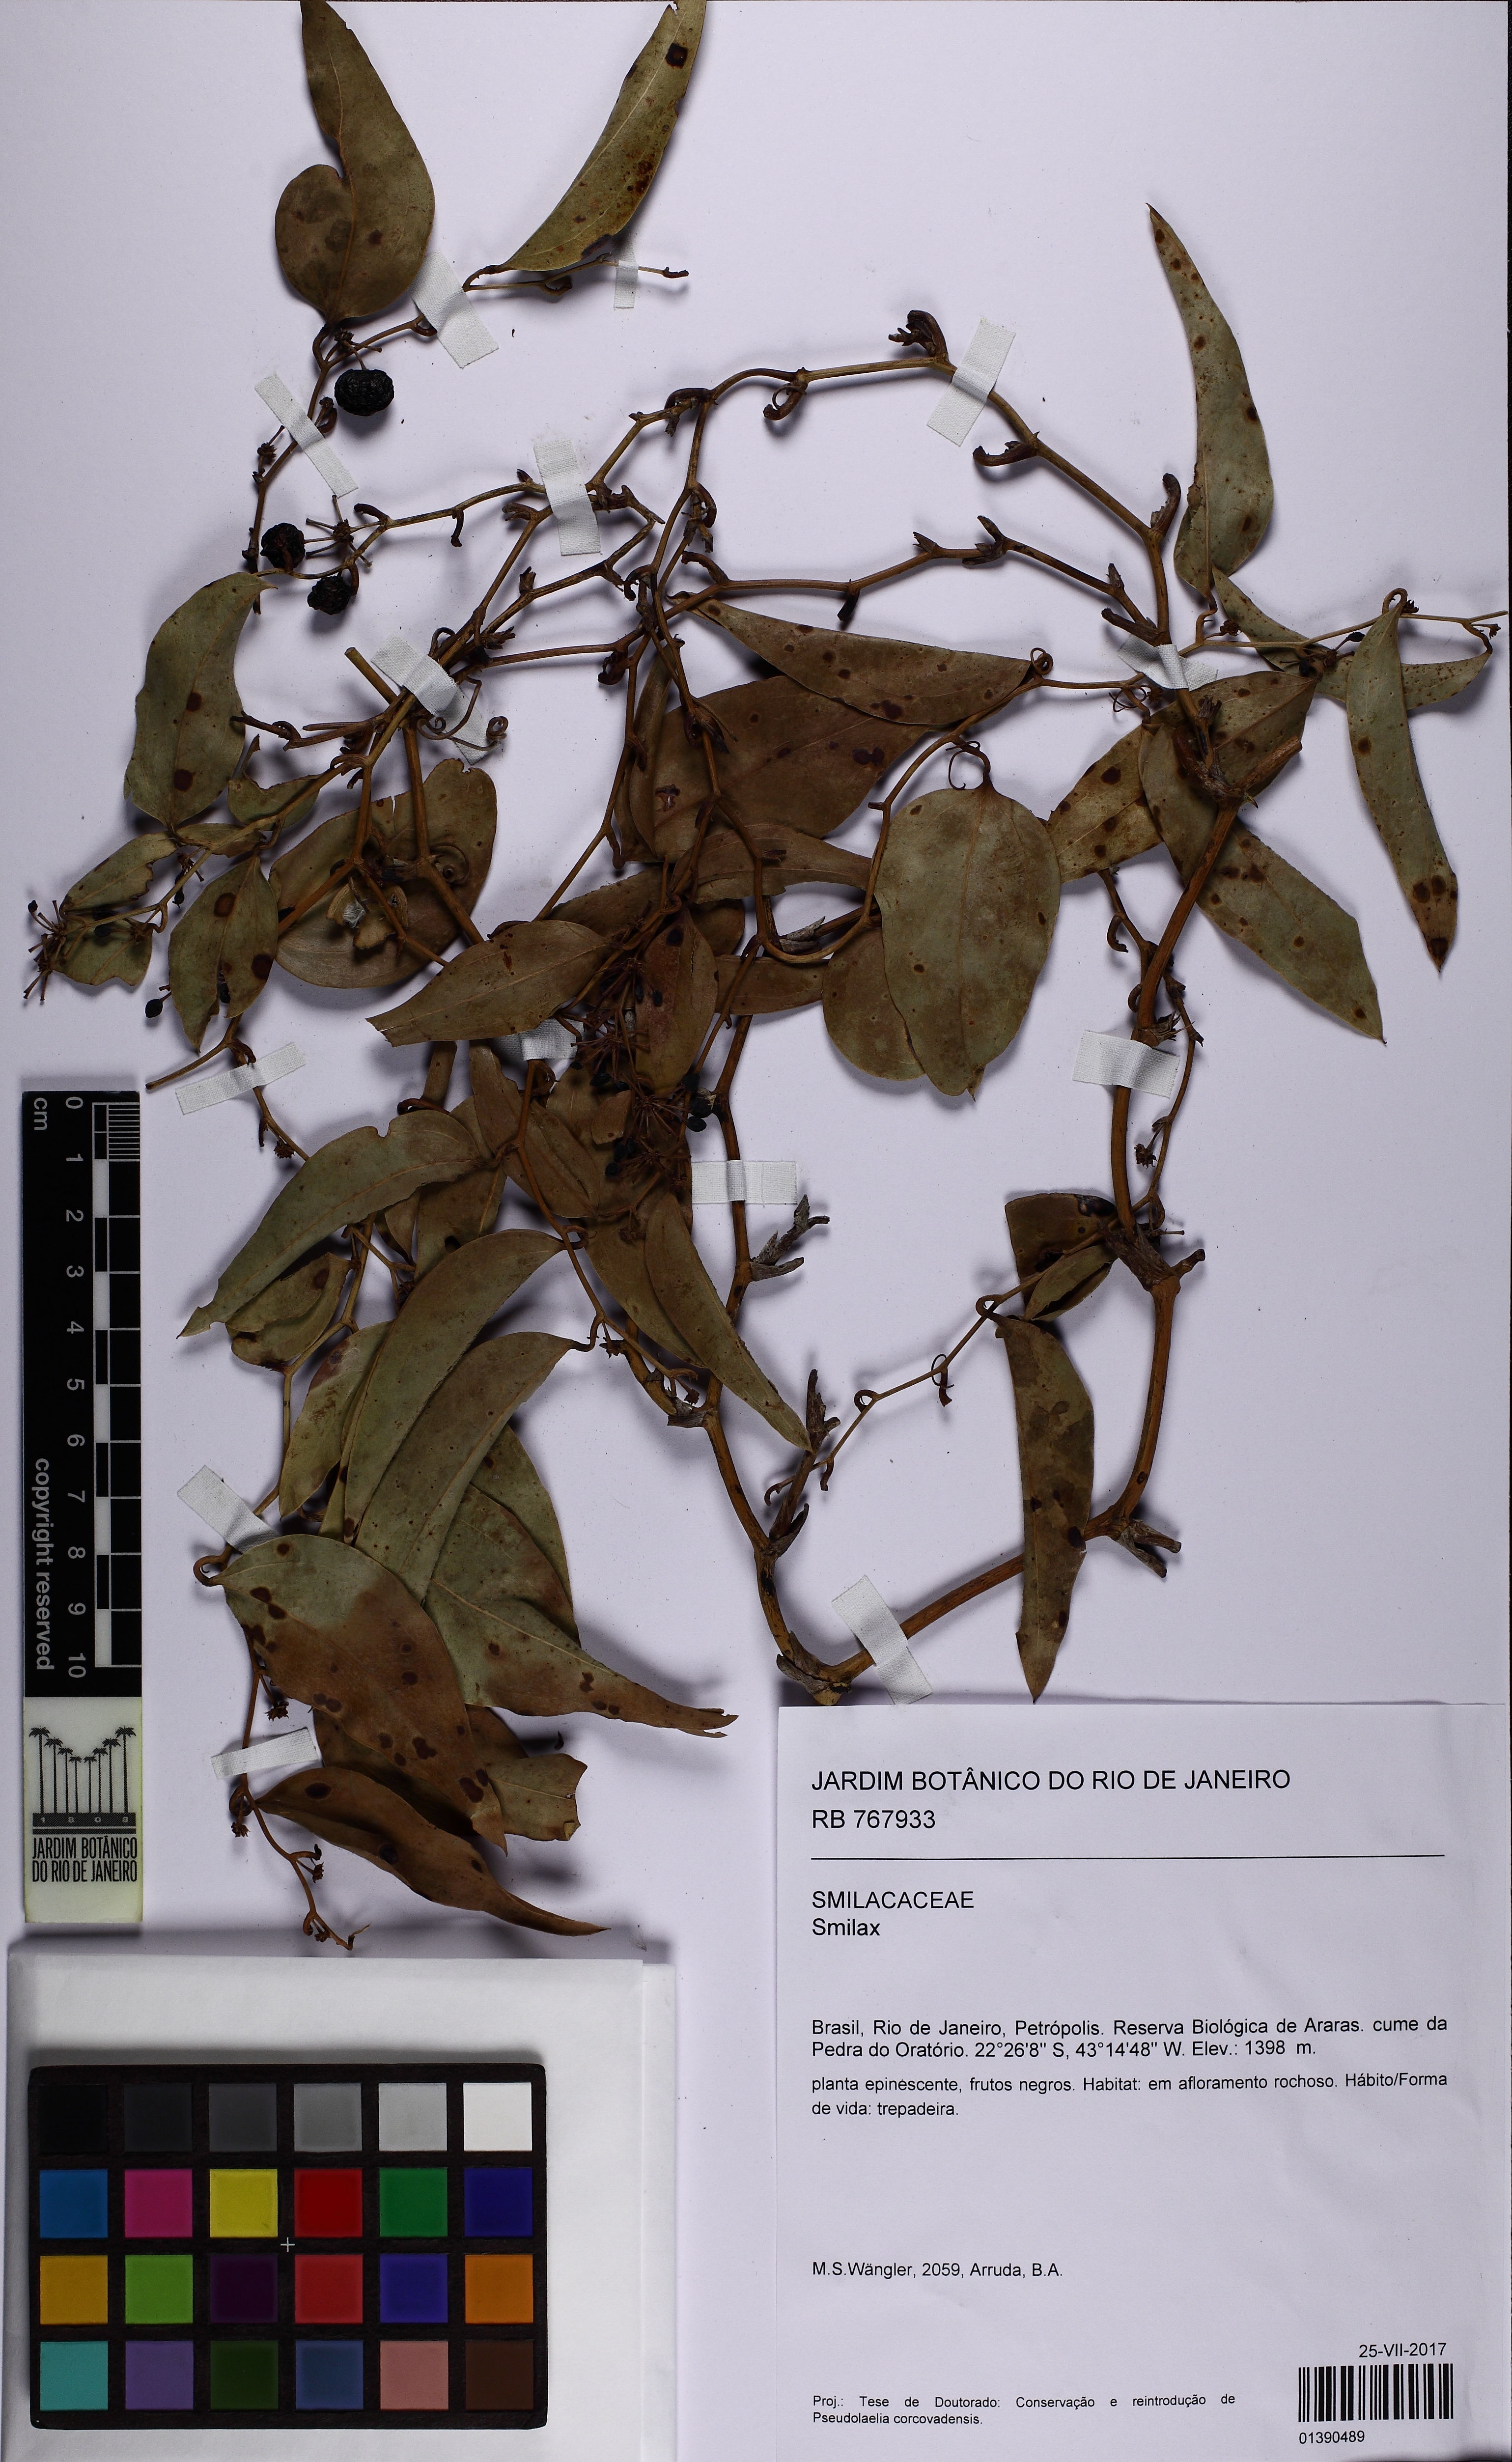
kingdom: Plantae
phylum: Tracheophyta
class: Liliopsida
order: Liliales
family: Smilacaceae
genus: Smilax
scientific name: Smilax
